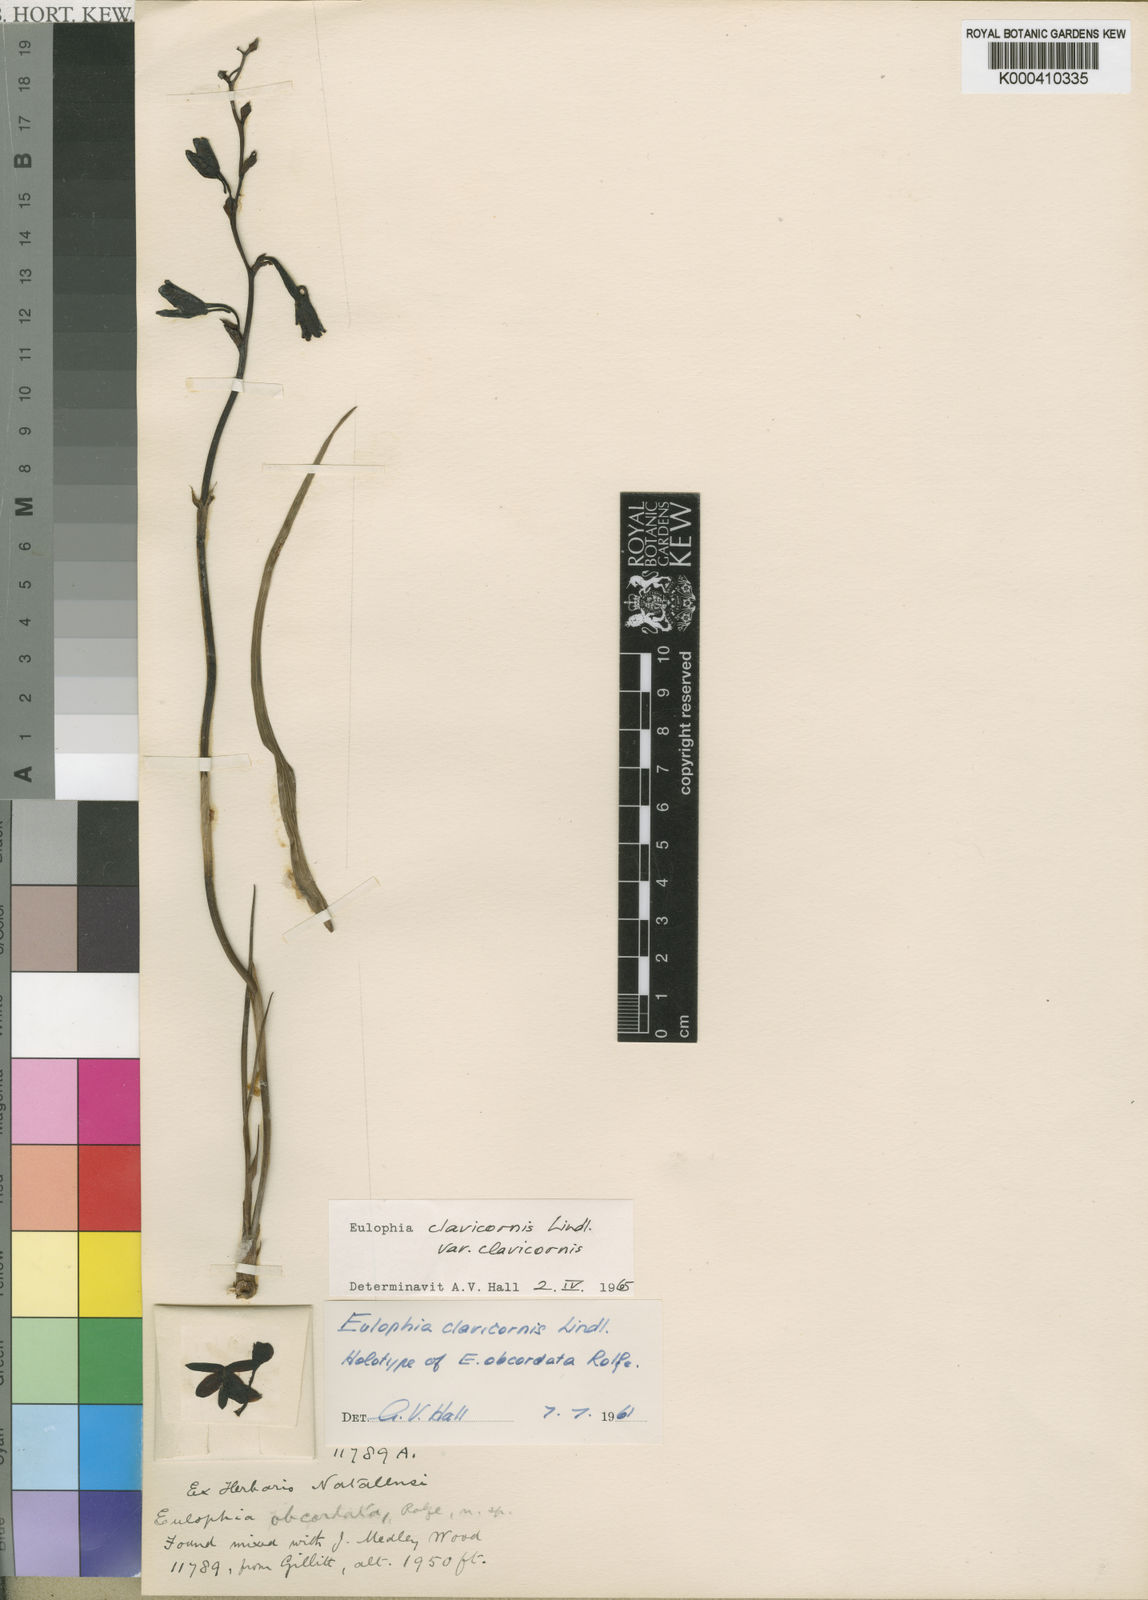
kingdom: Plantae
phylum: Tracheophyta
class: Liliopsida
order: Asparagales
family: Orchidaceae
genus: Eulophia
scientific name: Eulophia hians
